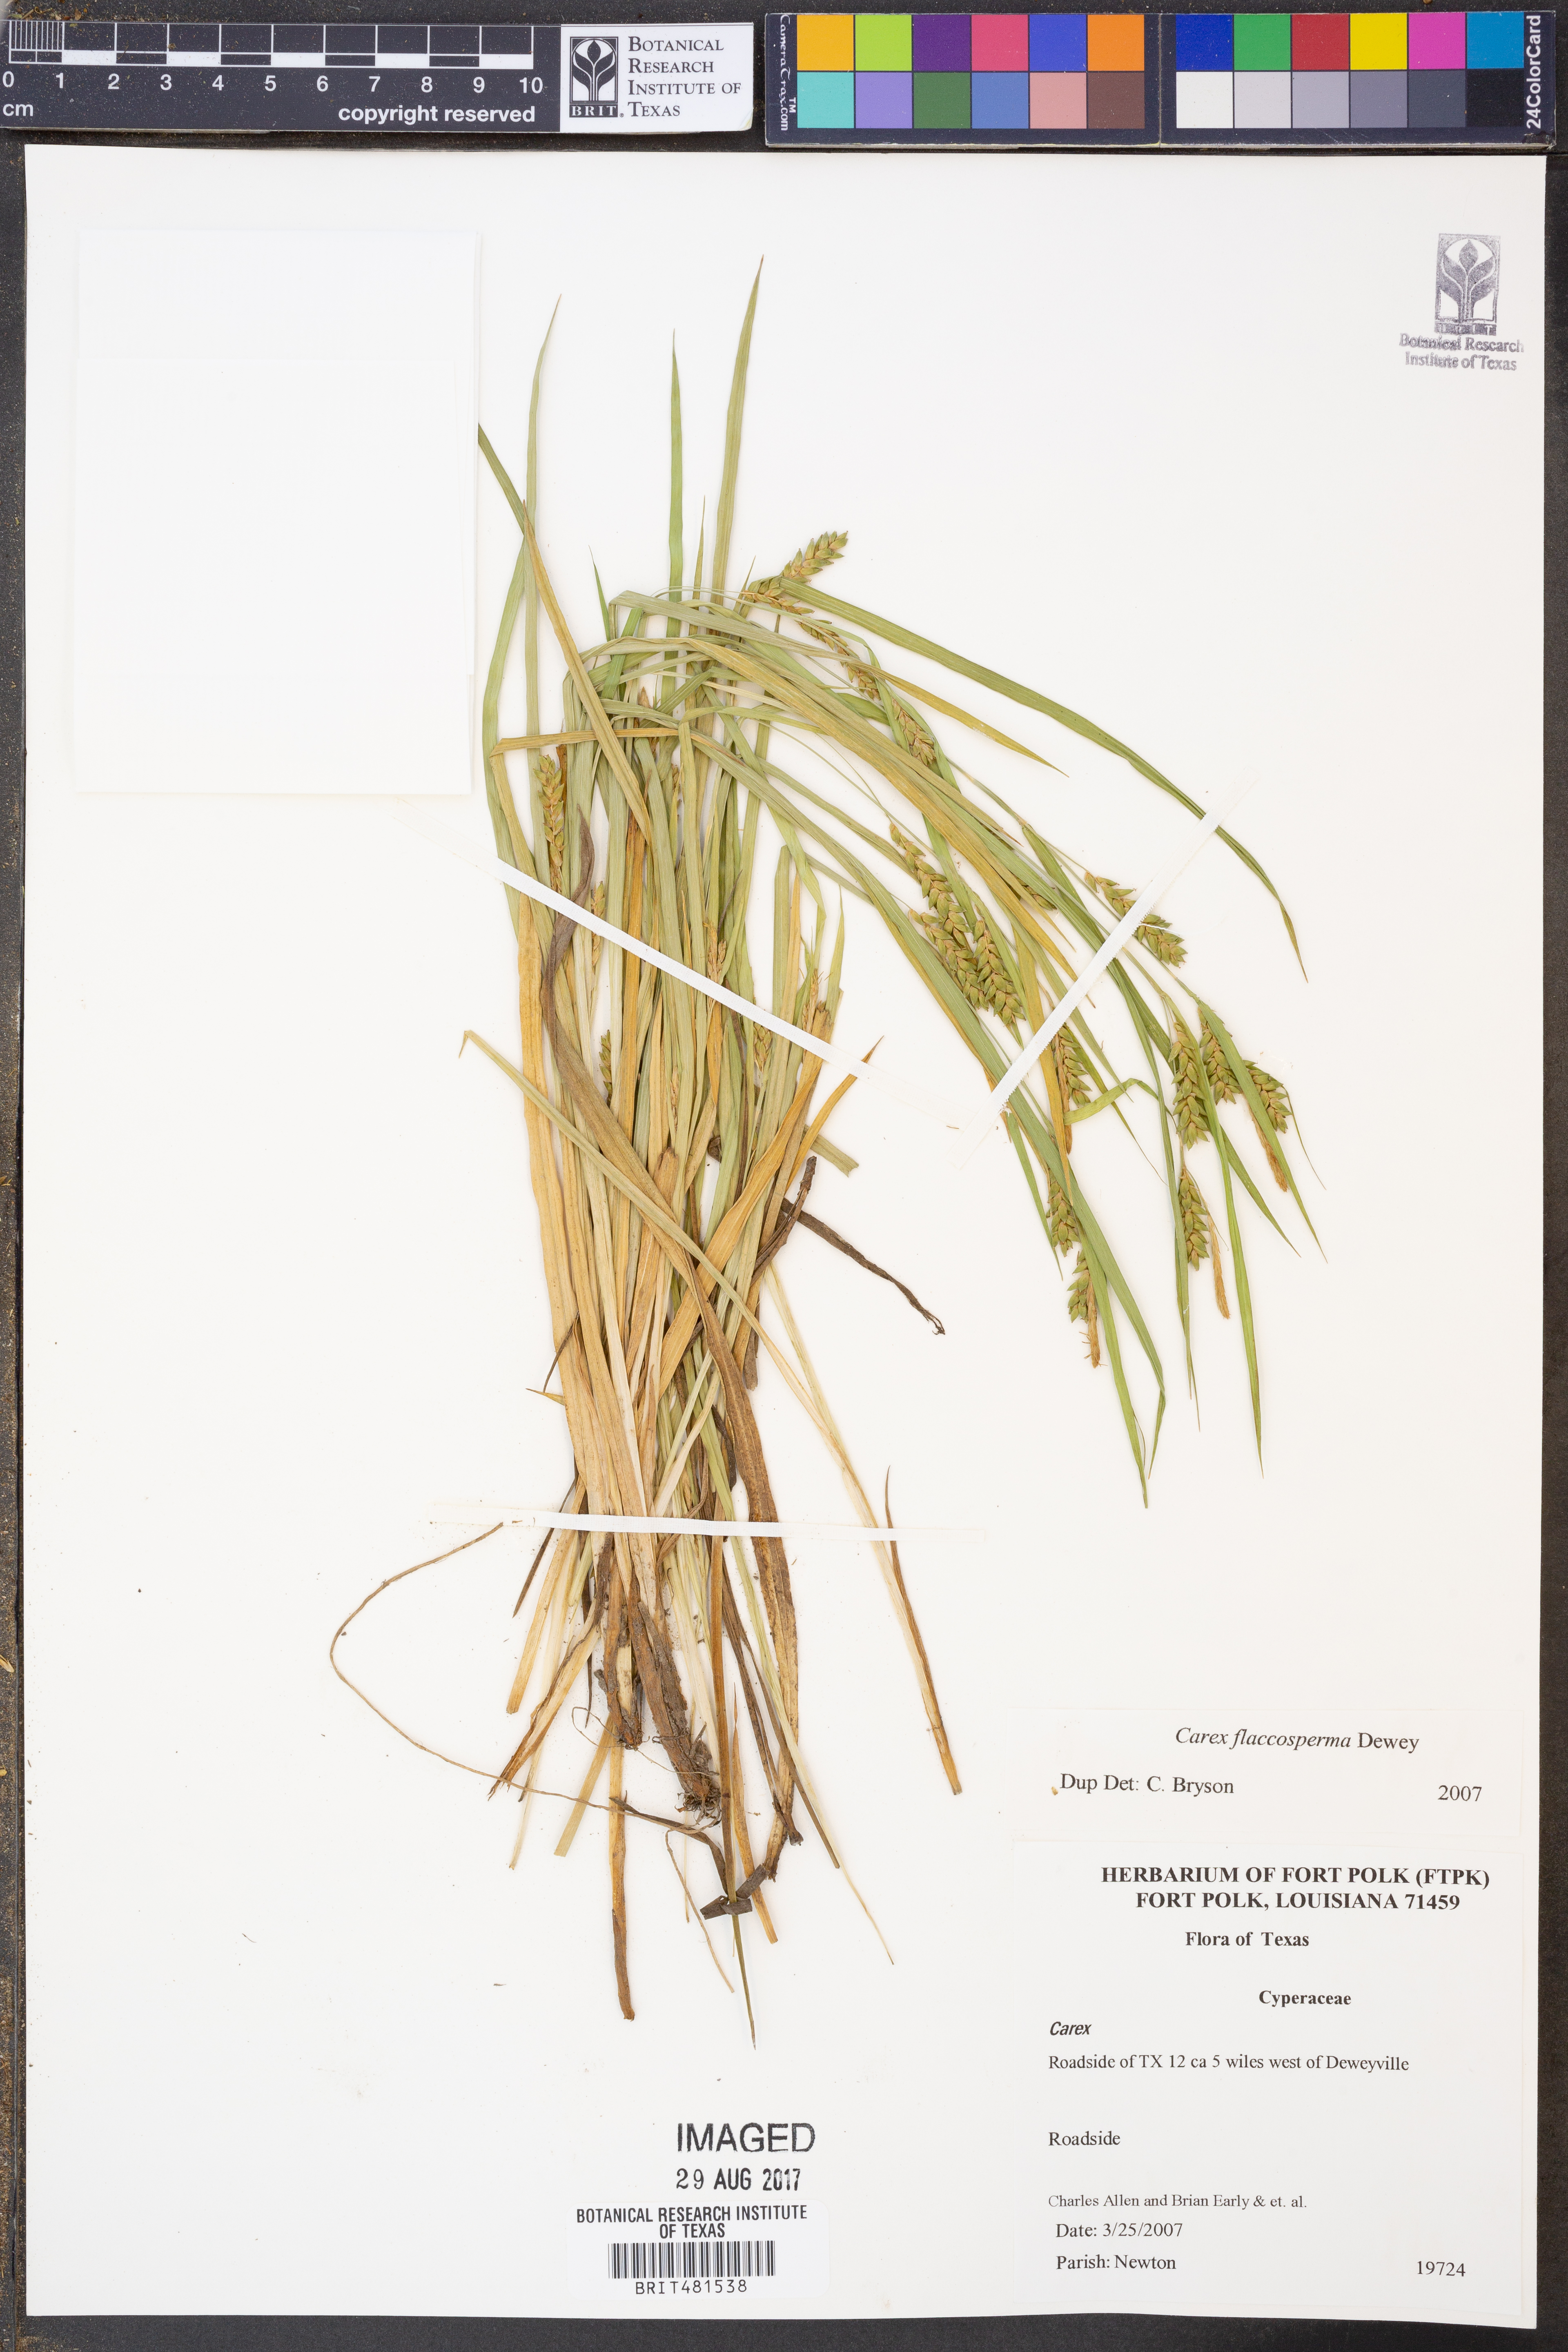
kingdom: Plantae
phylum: Tracheophyta
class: Liliopsida
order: Poales
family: Cyperaceae
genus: Carex
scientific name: Carex
